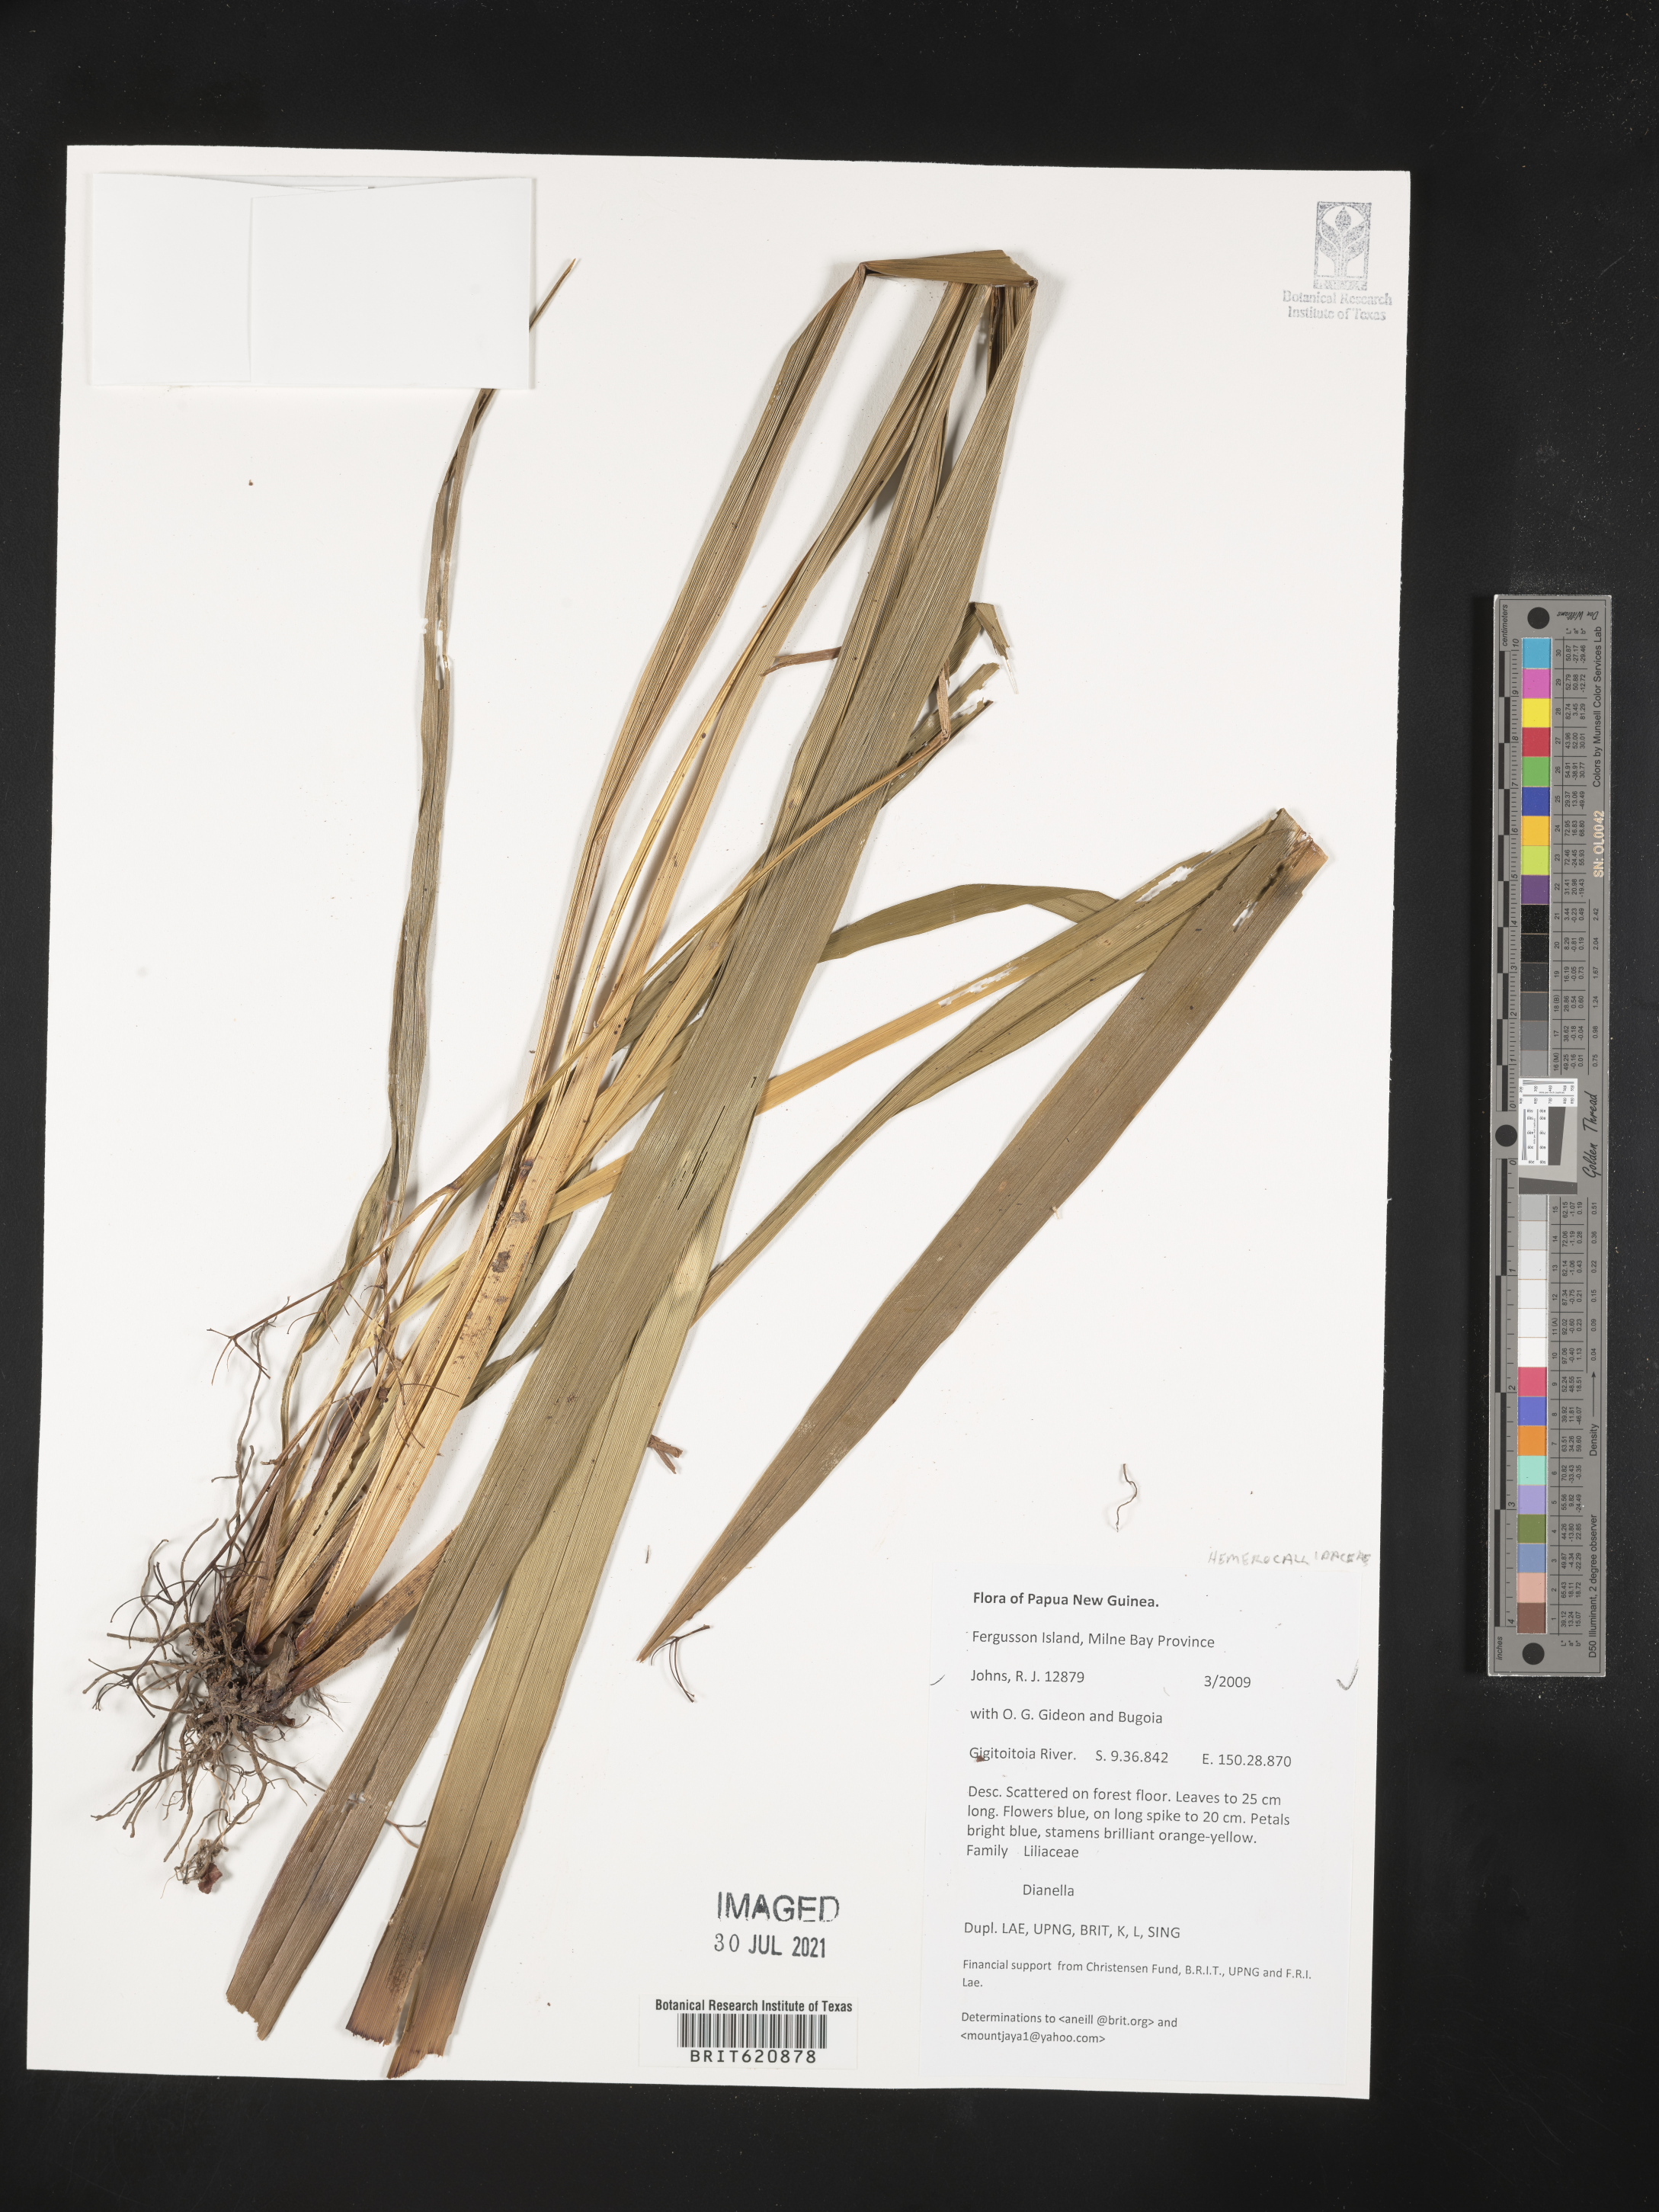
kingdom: Plantae
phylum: Tracheophyta
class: Liliopsida
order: Asparagales
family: Asphodelaceae
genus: Dianella
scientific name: Dianella
